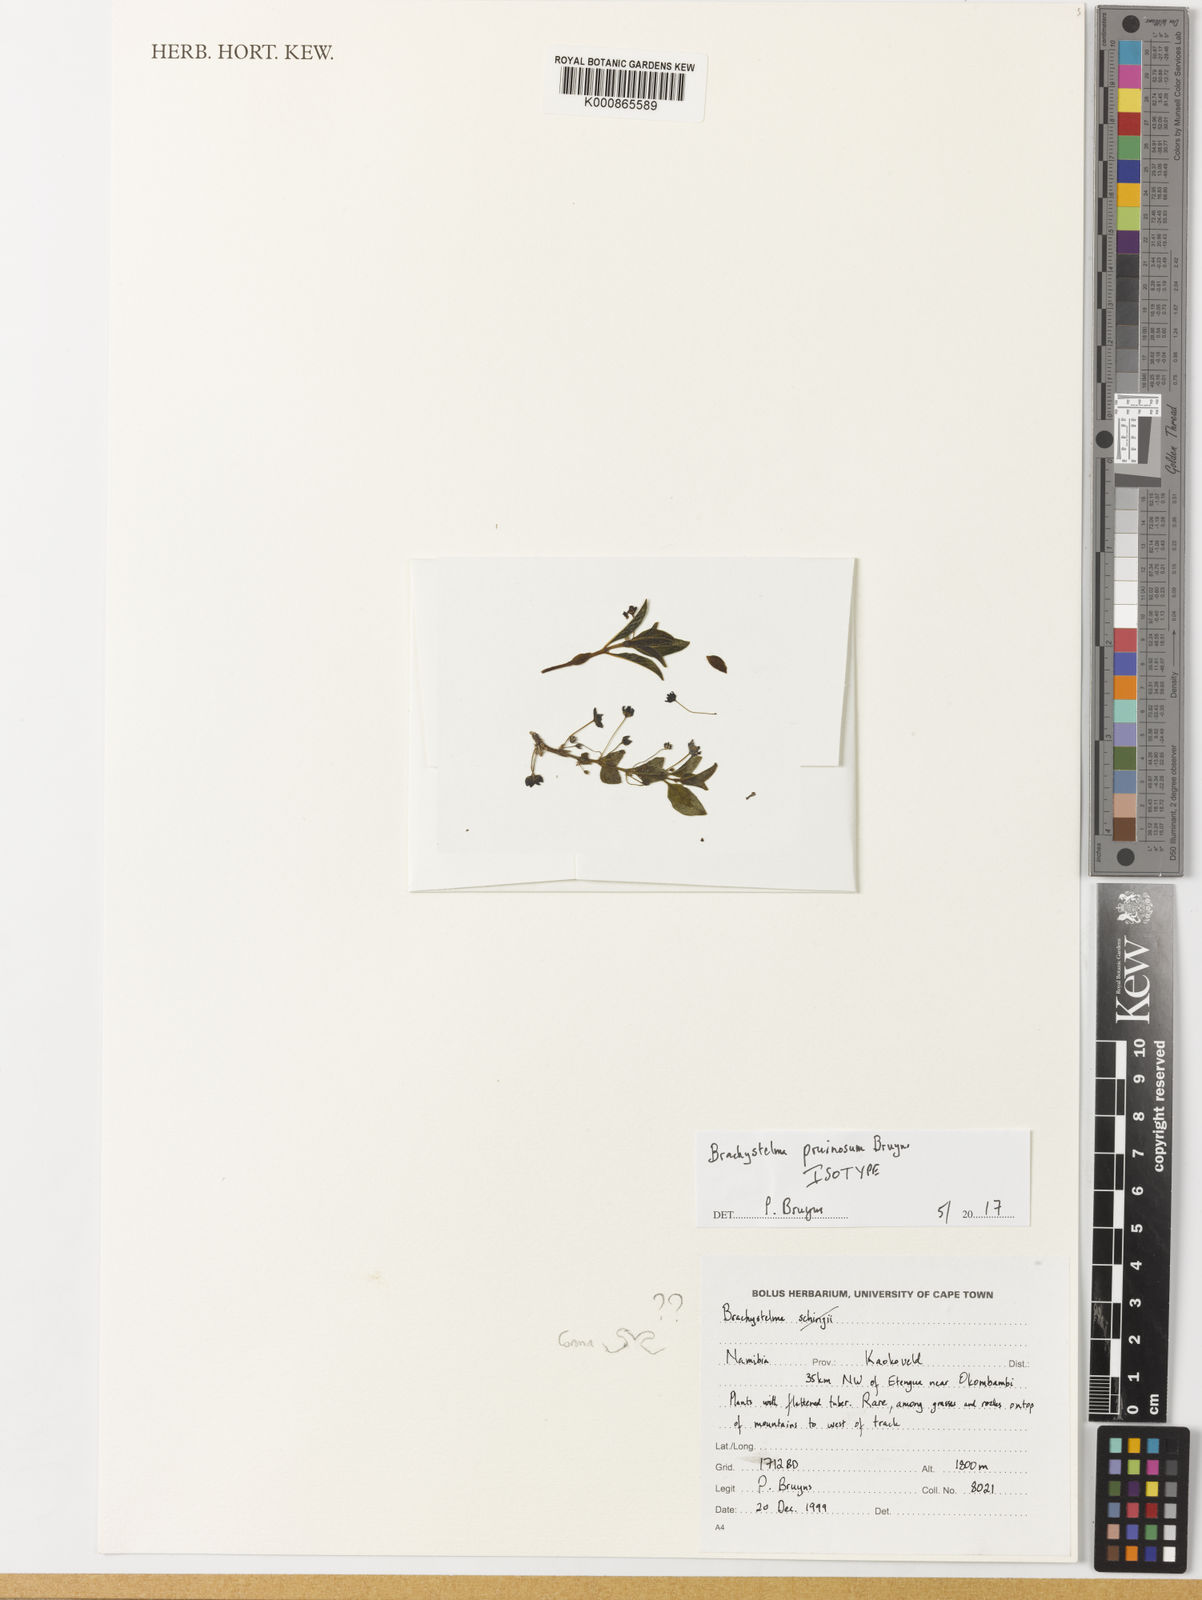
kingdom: Plantae
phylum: Tracheophyta
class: Magnoliopsida
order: Gentianales
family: Apocynaceae
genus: Ceropegia
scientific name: Ceropegia pruinosior
